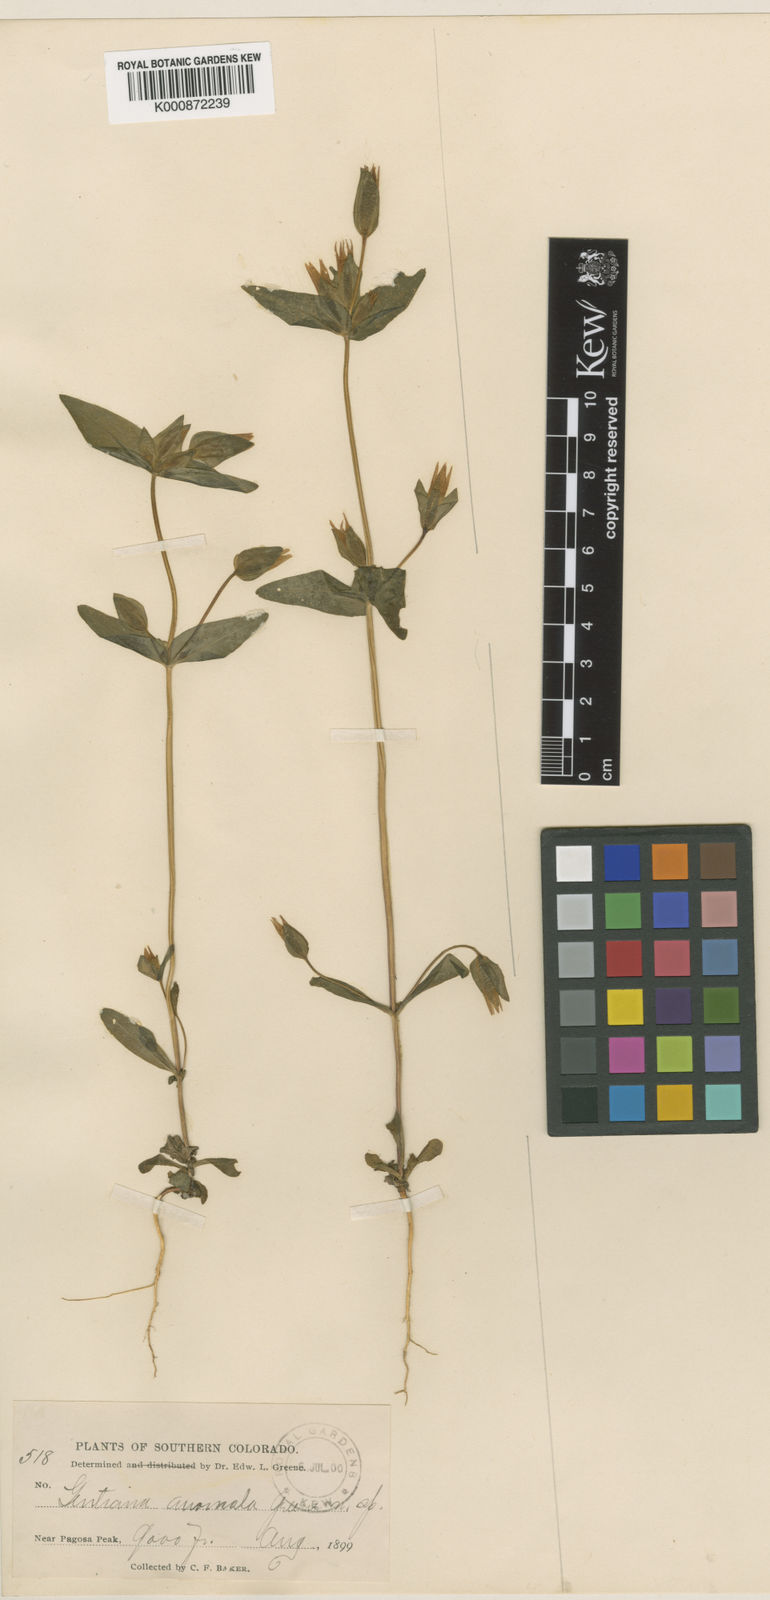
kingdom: Plantae
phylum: Tracheophyta
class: Magnoliopsida
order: Gentianales
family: Gentianaceae
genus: Gentianella
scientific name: Gentianella anomala
